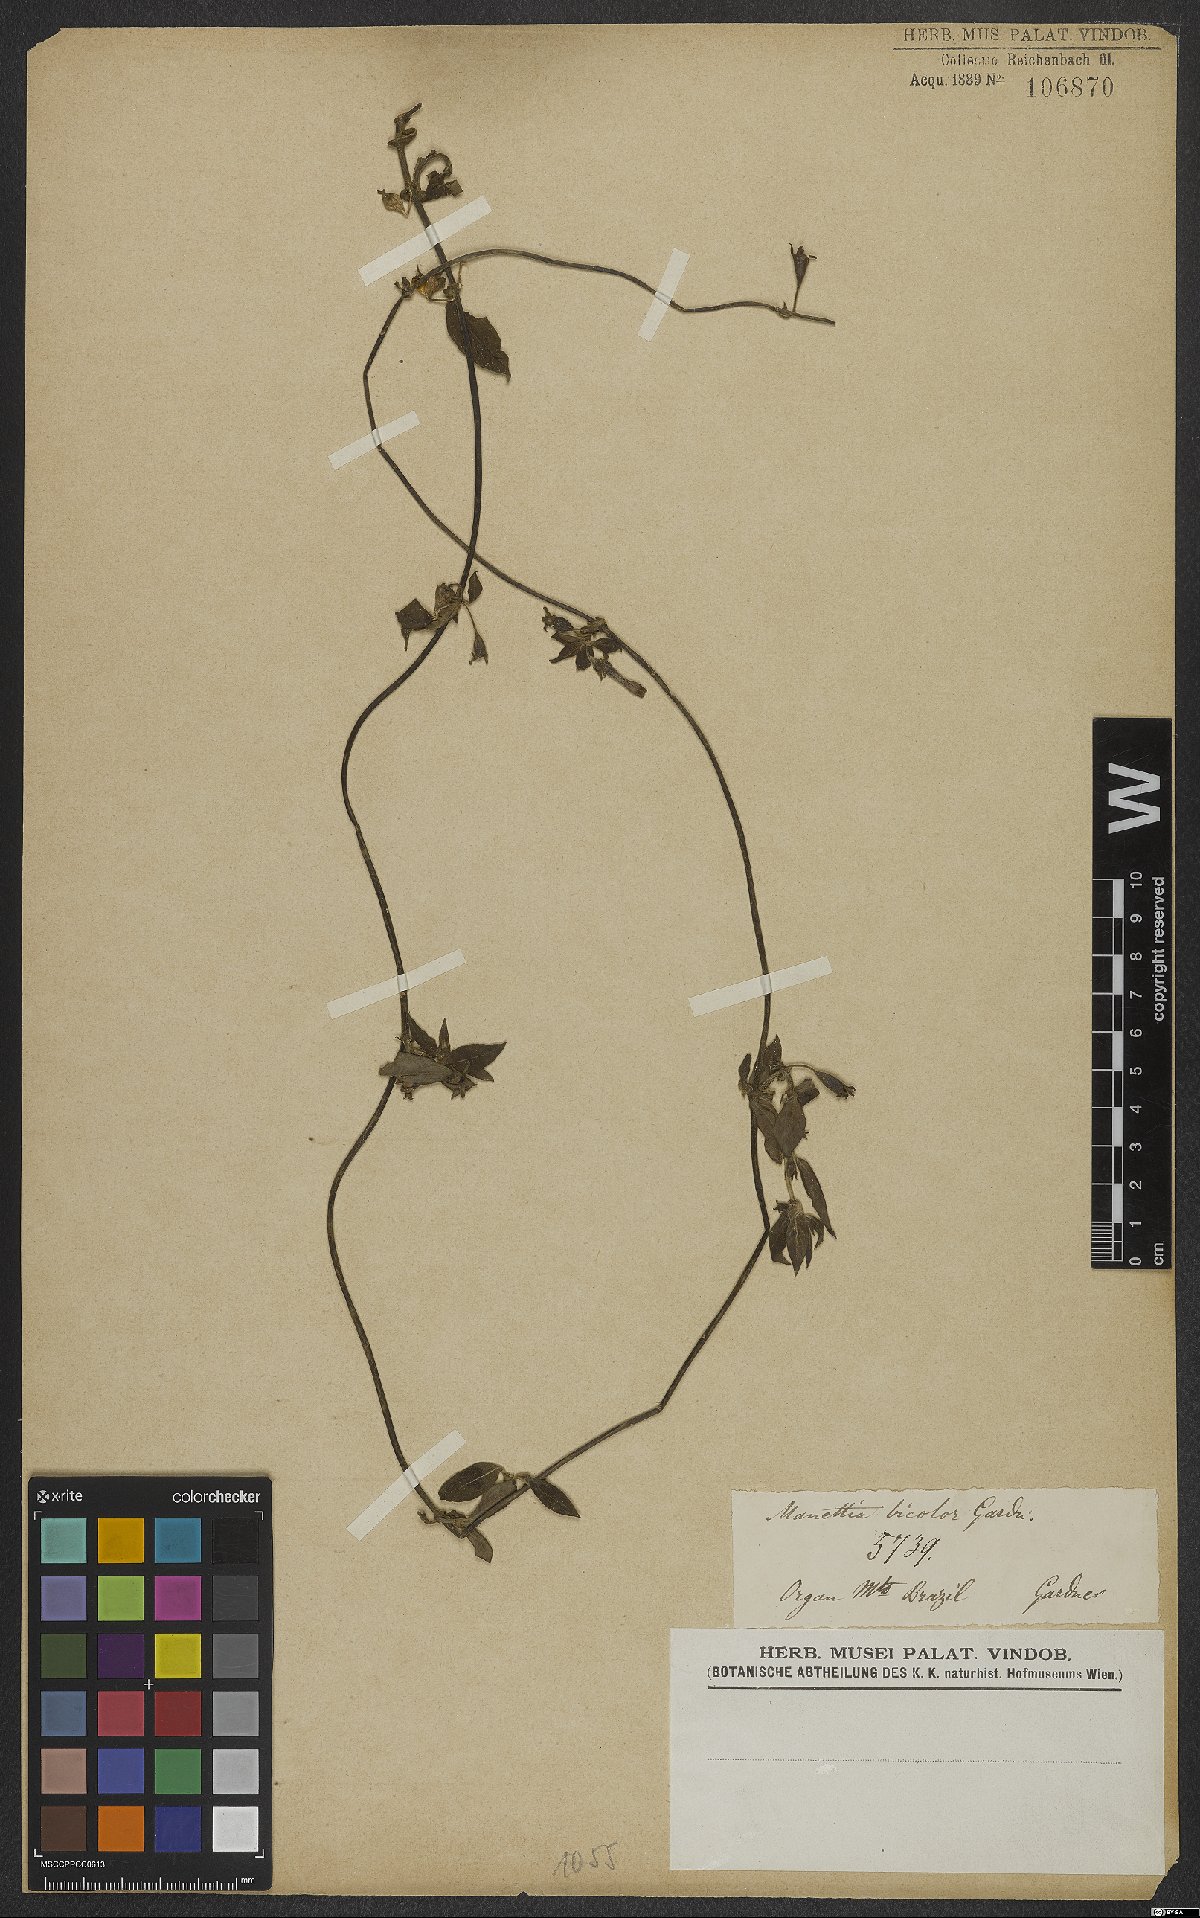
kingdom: Plantae
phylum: Tracheophyta
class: Magnoliopsida
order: Gentianales
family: Rubiaceae
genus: Manettia
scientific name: Manettia luteorubra
